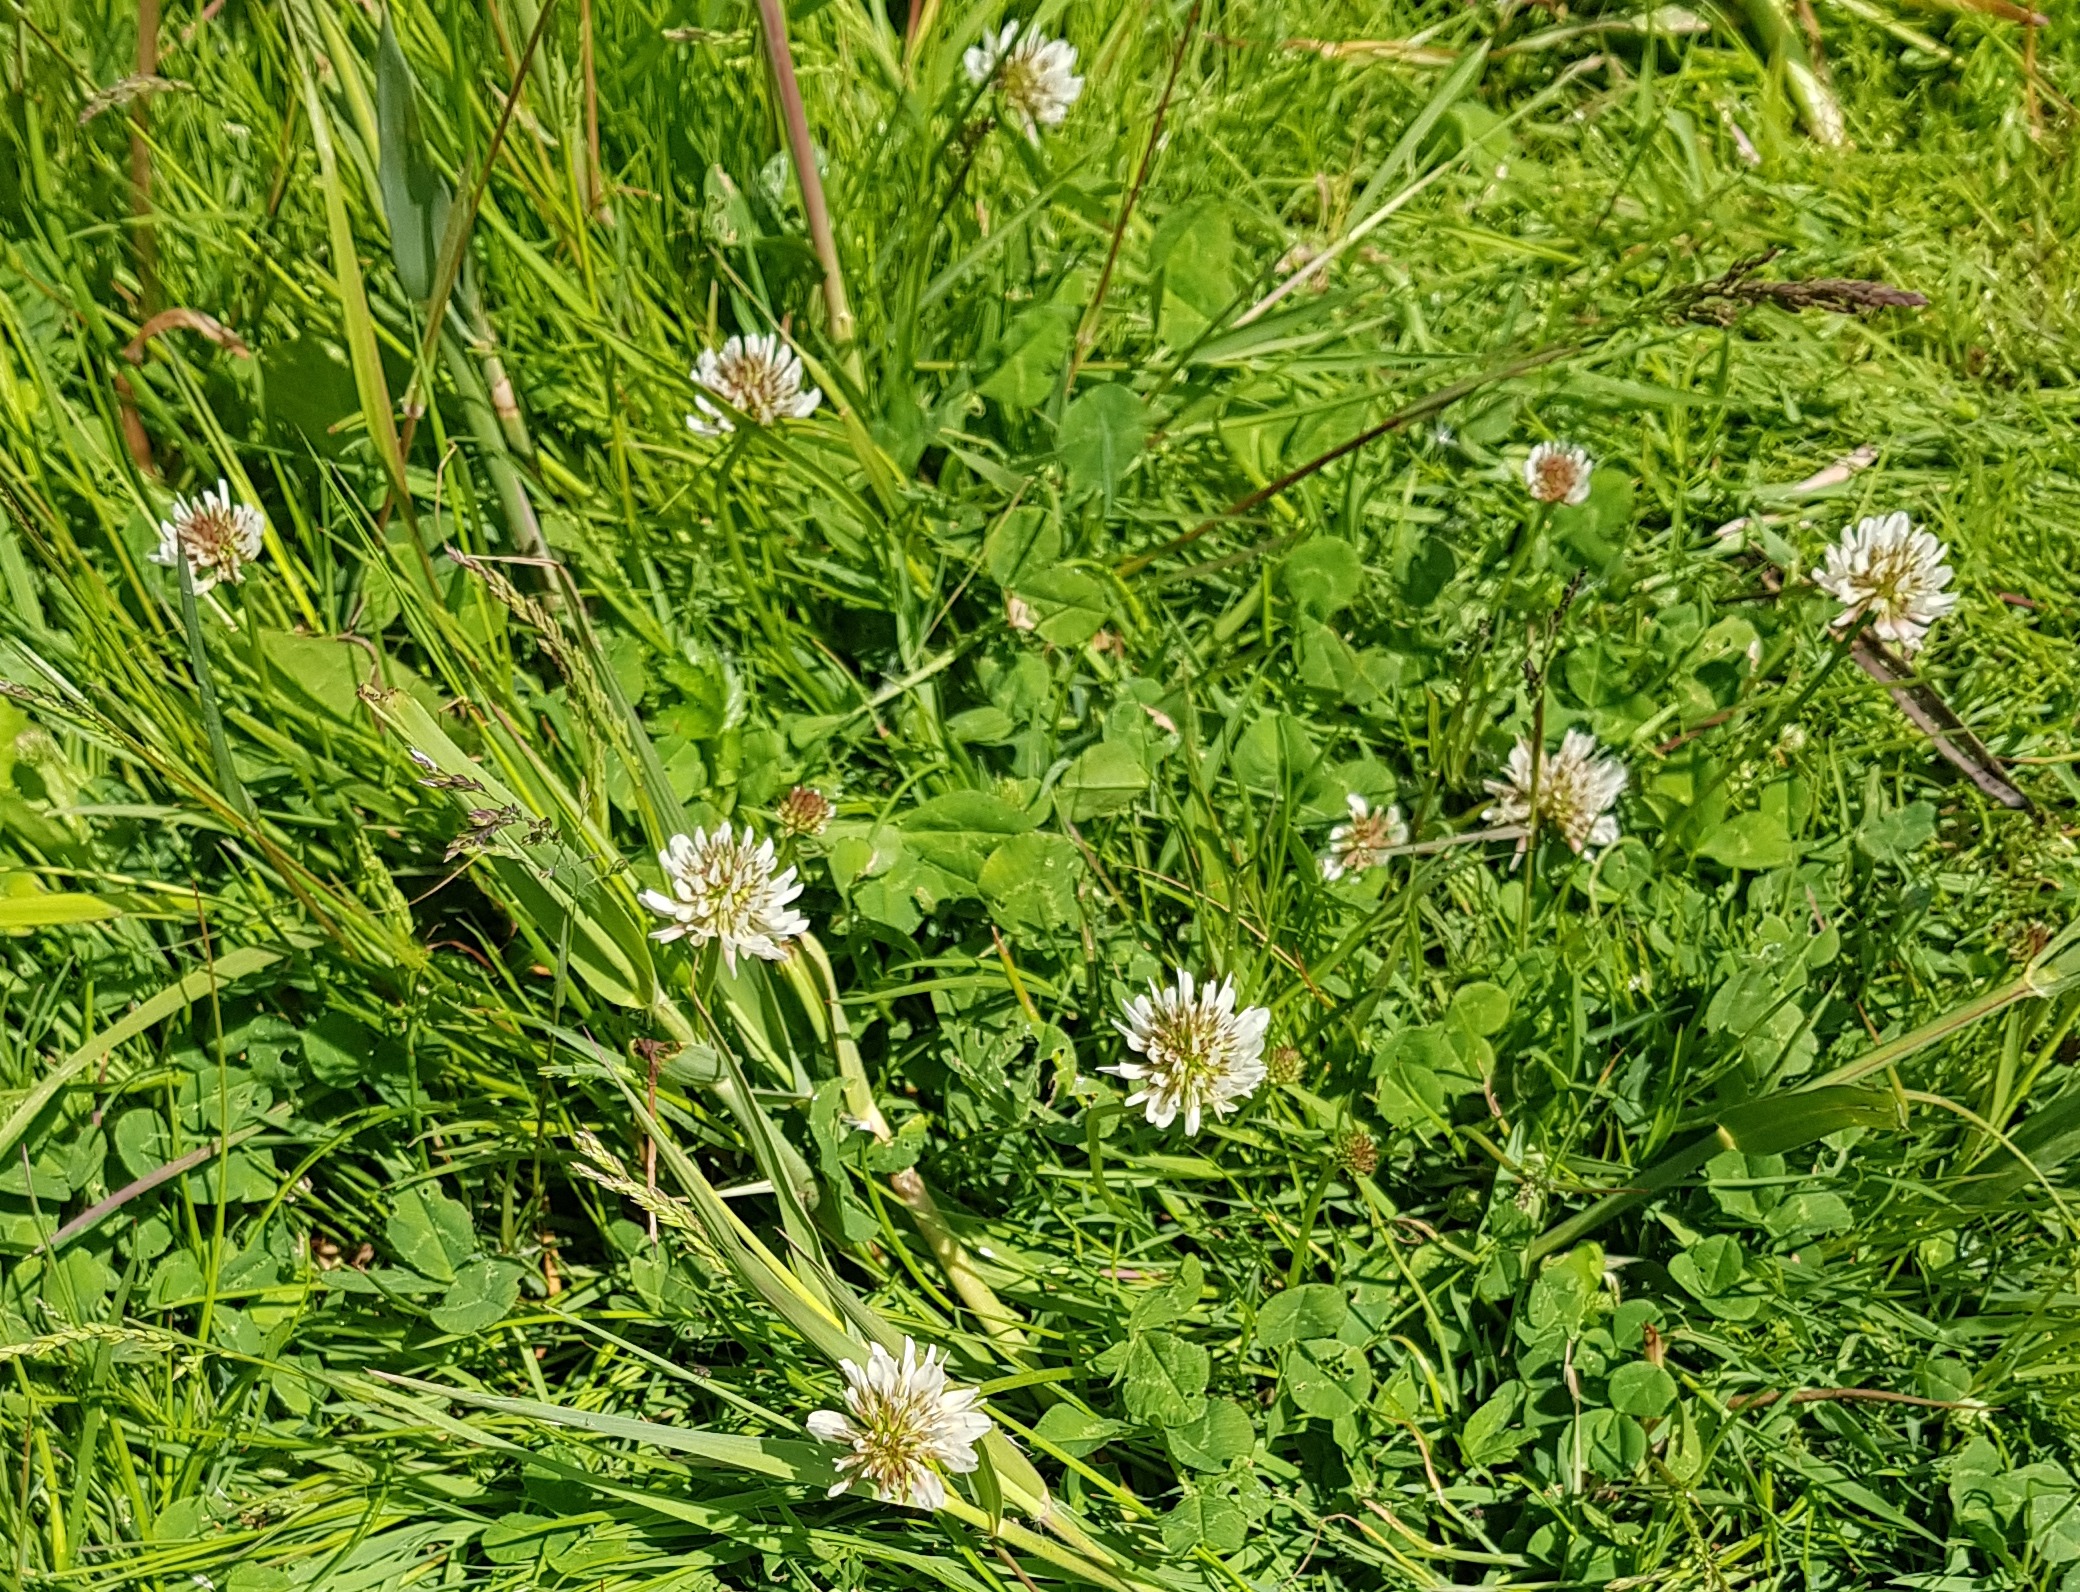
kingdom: Plantae
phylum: Tracheophyta
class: Magnoliopsida
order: Fabales
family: Fabaceae
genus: Trifolium
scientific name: Trifolium repens
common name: Hvid-kløver
